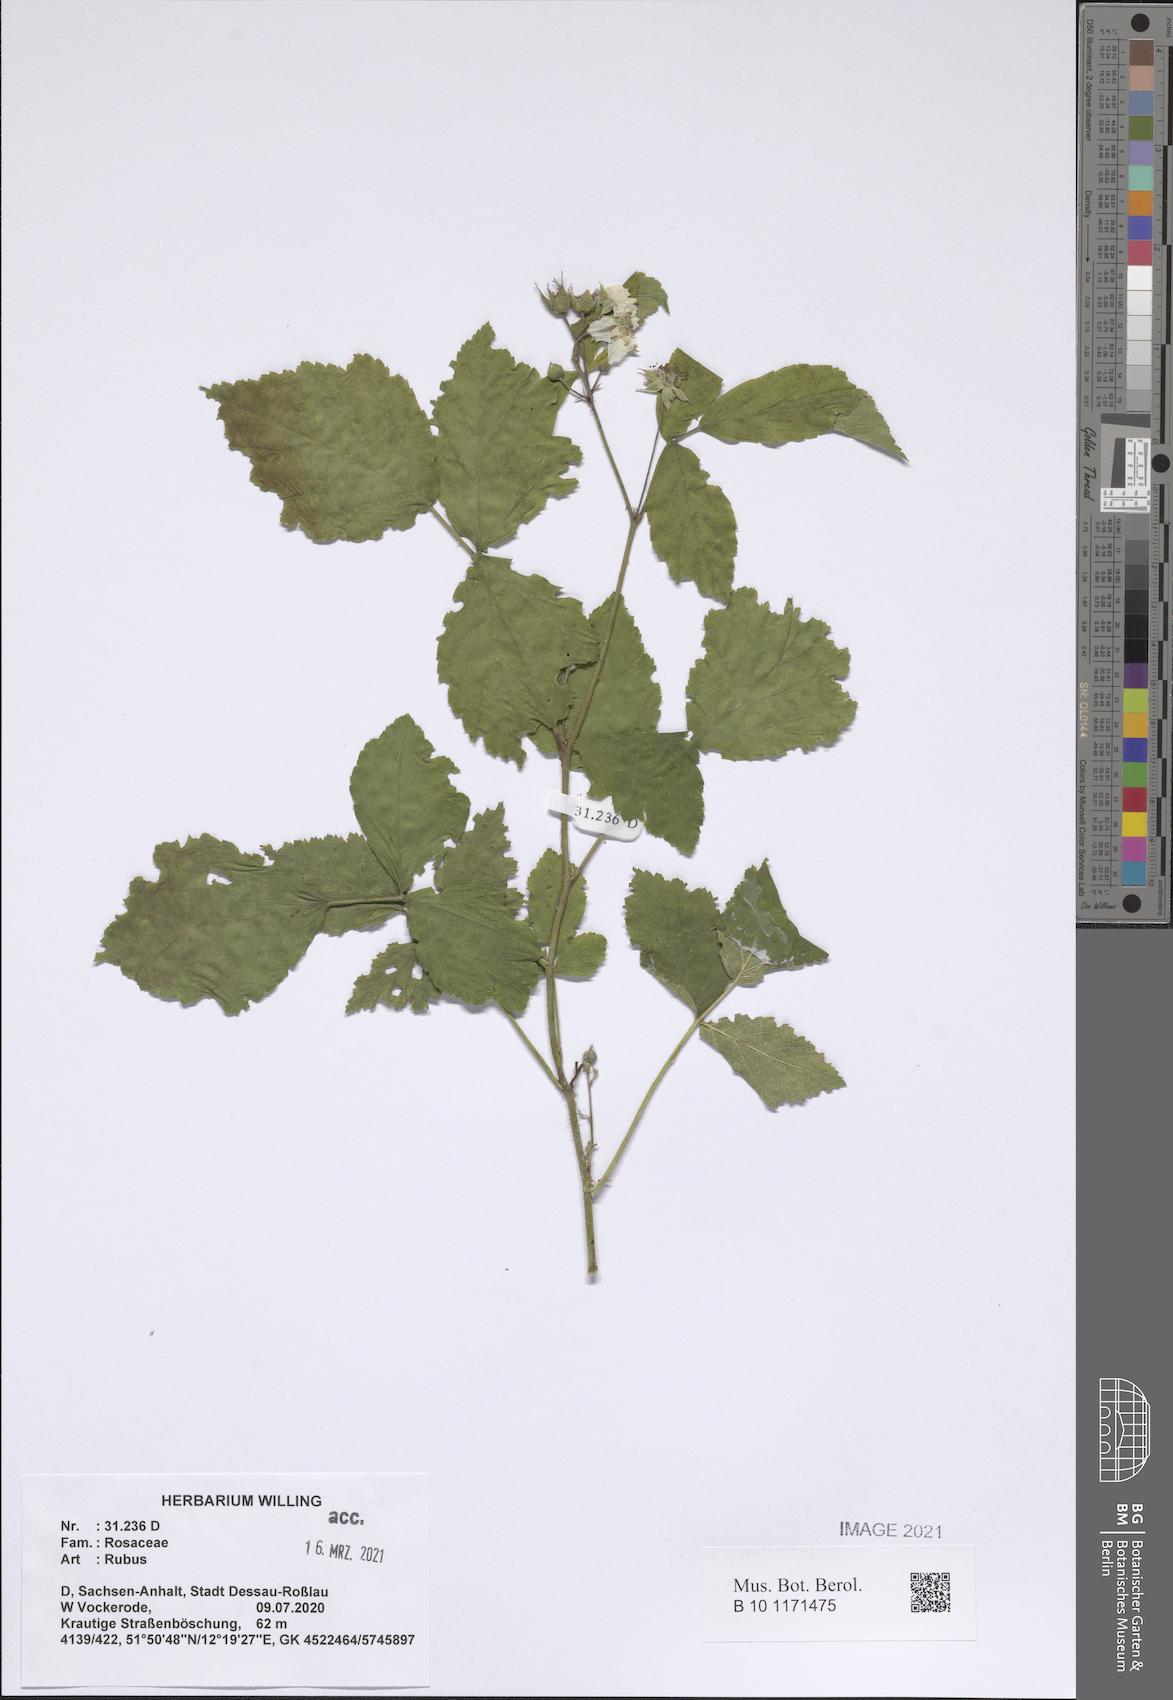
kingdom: Plantae
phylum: Tracheophyta
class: Magnoliopsida
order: Rosales
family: Rosaceae
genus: Rubus
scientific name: Rubus
